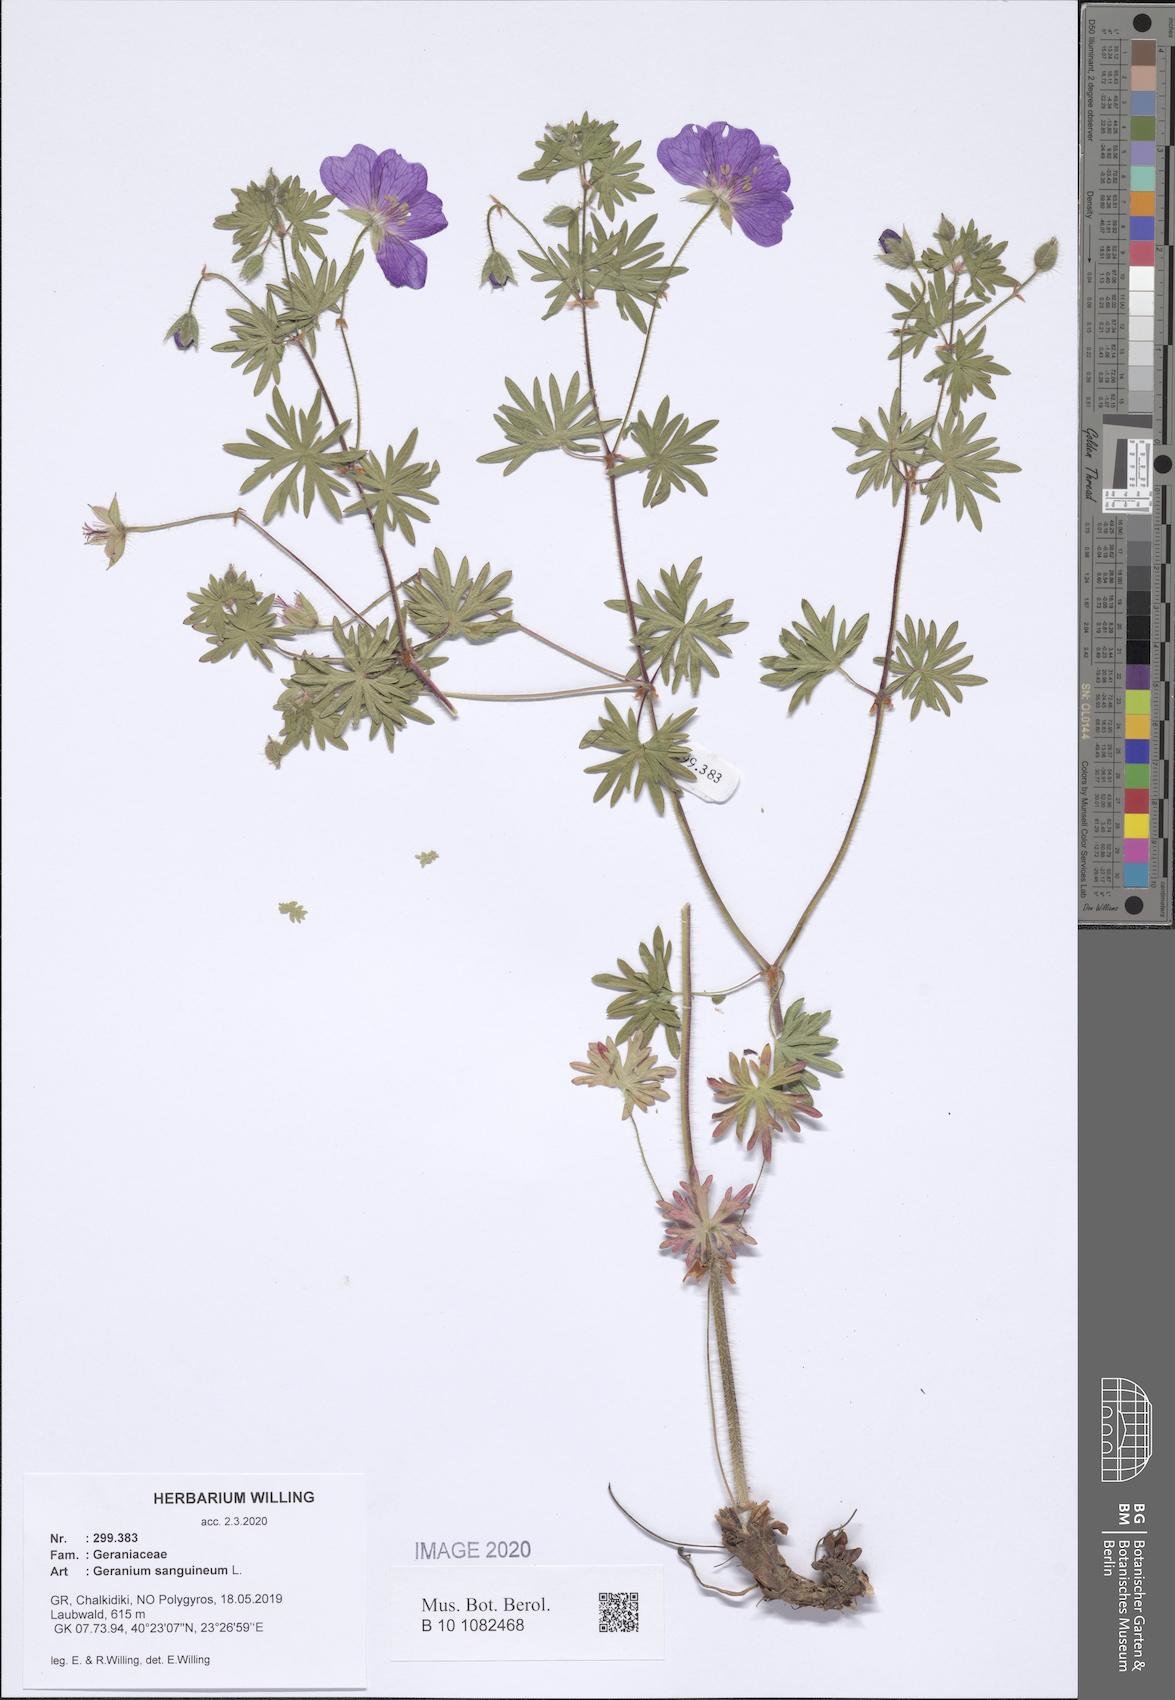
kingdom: Plantae
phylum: Tracheophyta
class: Magnoliopsida
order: Geraniales
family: Geraniaceae
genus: Geranium
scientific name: Geranium sanguineum
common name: Bloody crane's-bill
